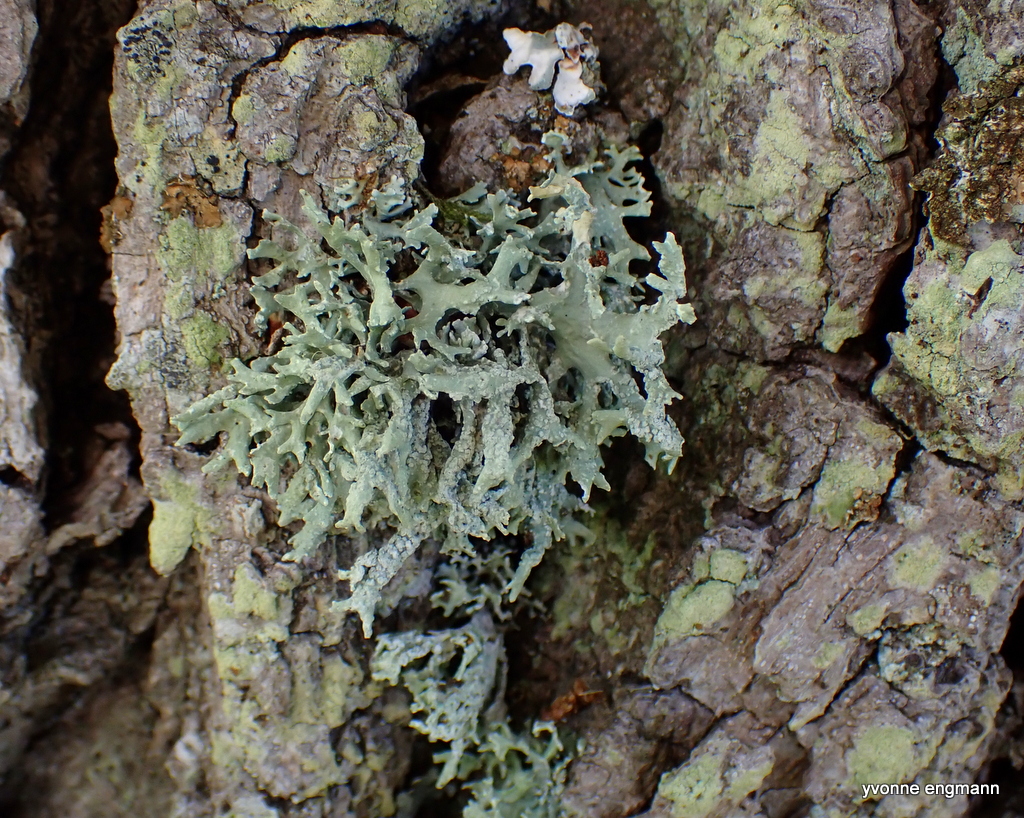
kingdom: Fungi
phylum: Ascomycota
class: Lecanoromycetes
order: Lecanorales
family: Parmeliaceae
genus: Evernia
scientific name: Evernia prunastri
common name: almindelig slåenlav
